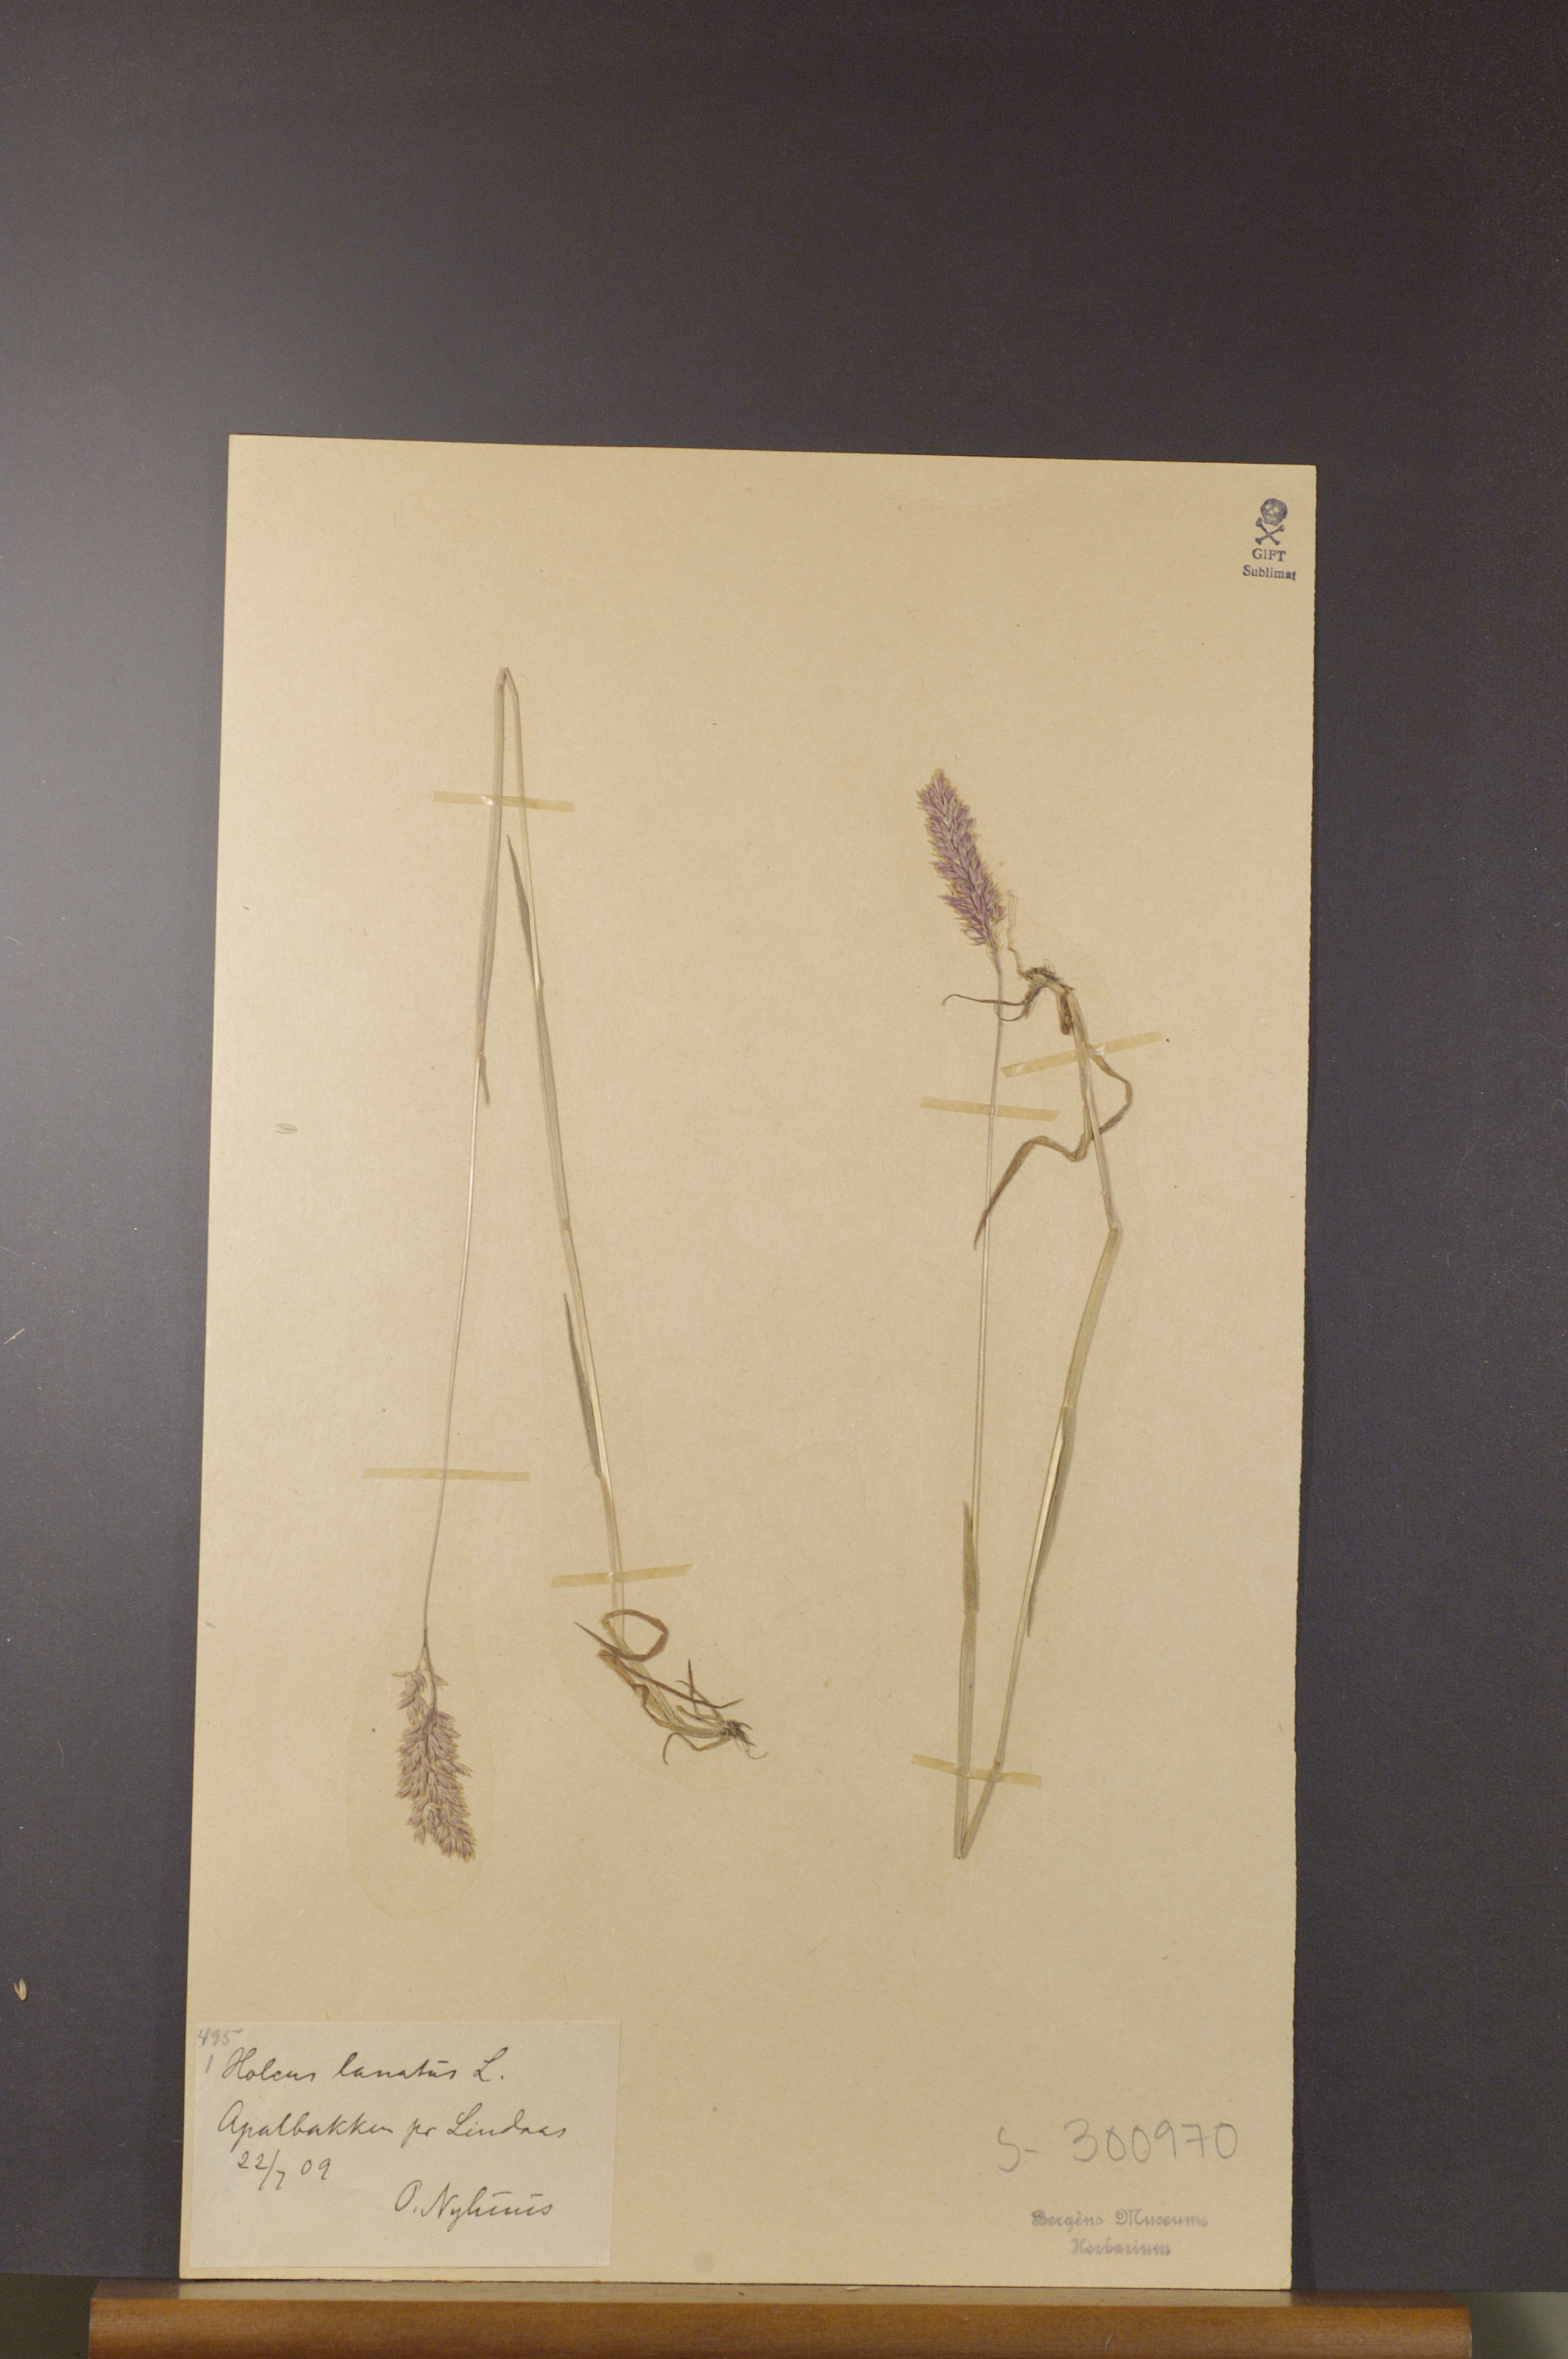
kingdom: Plantae
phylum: Tracheophyta
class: Liliopsida
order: Poales
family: Poaceae
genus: Holcus
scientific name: Holcus lanatus
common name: Yorkshire-fog
